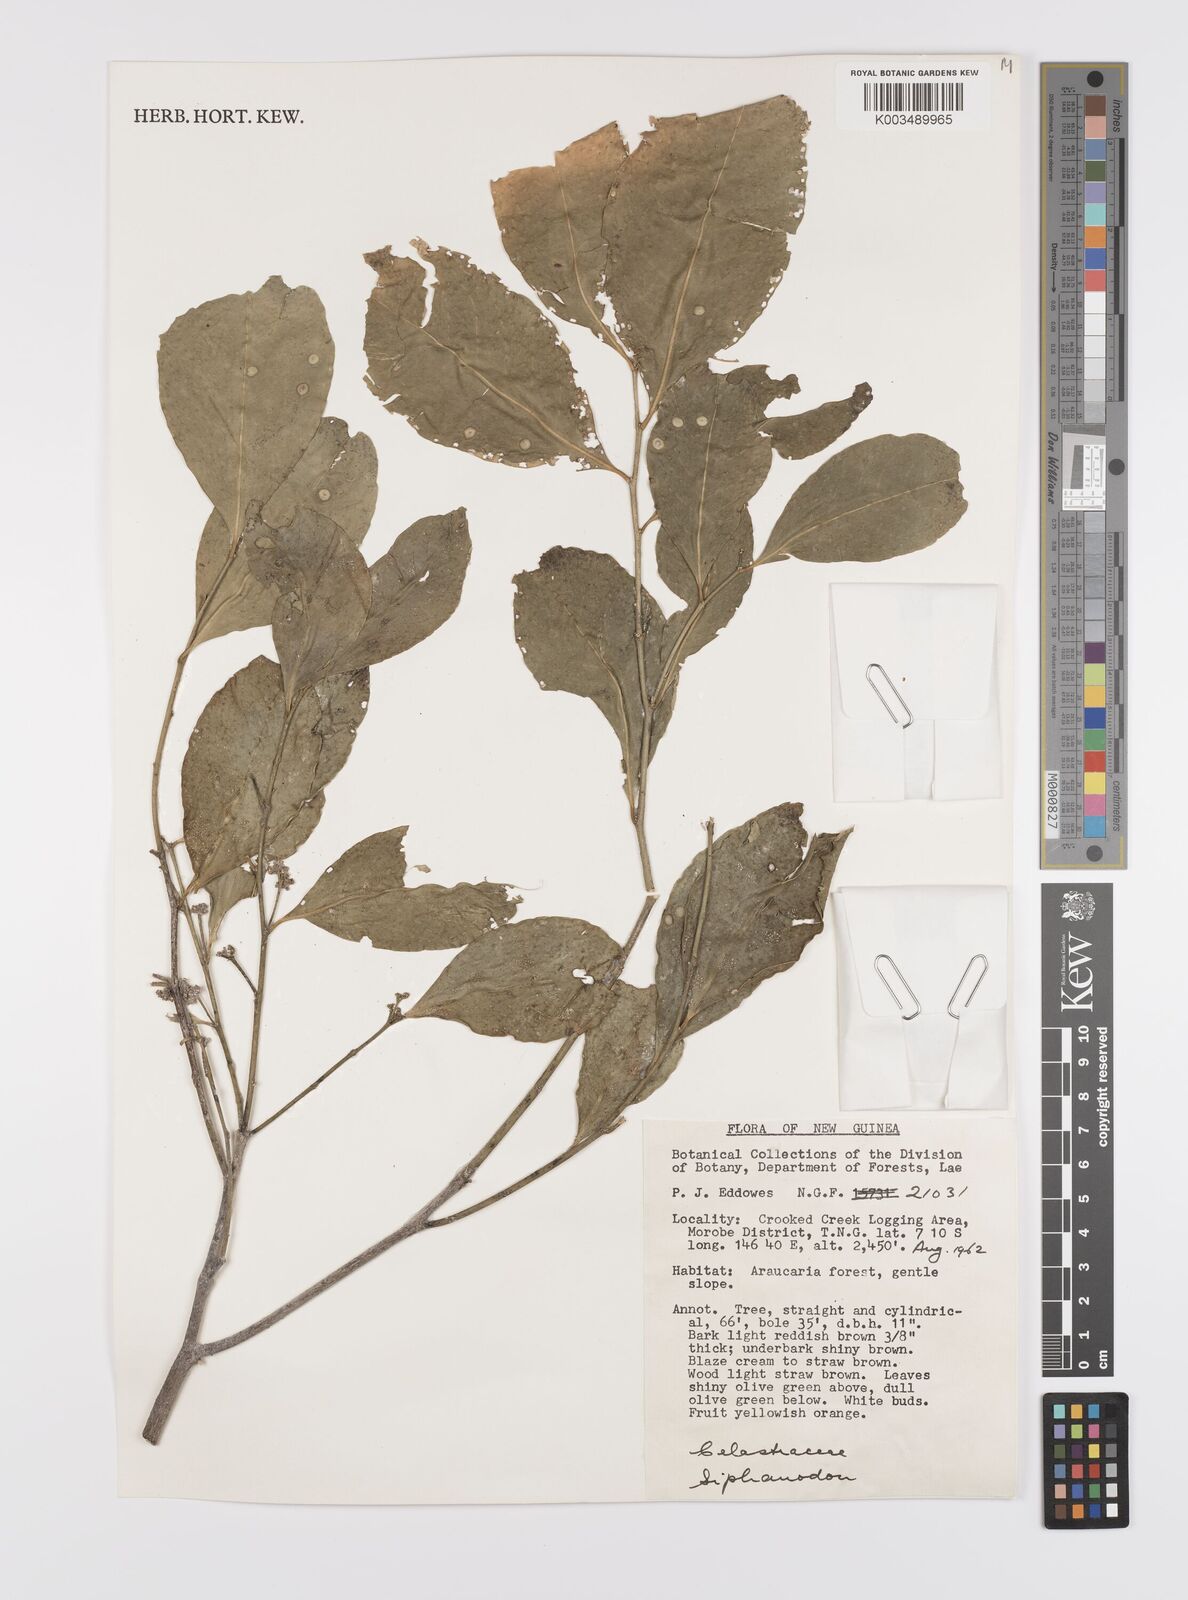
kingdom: Plantae
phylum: Tracheophyta
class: Magnoliopsida
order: Celastrales
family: Celastraceae
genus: Siphonodon
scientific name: Siphonodon
